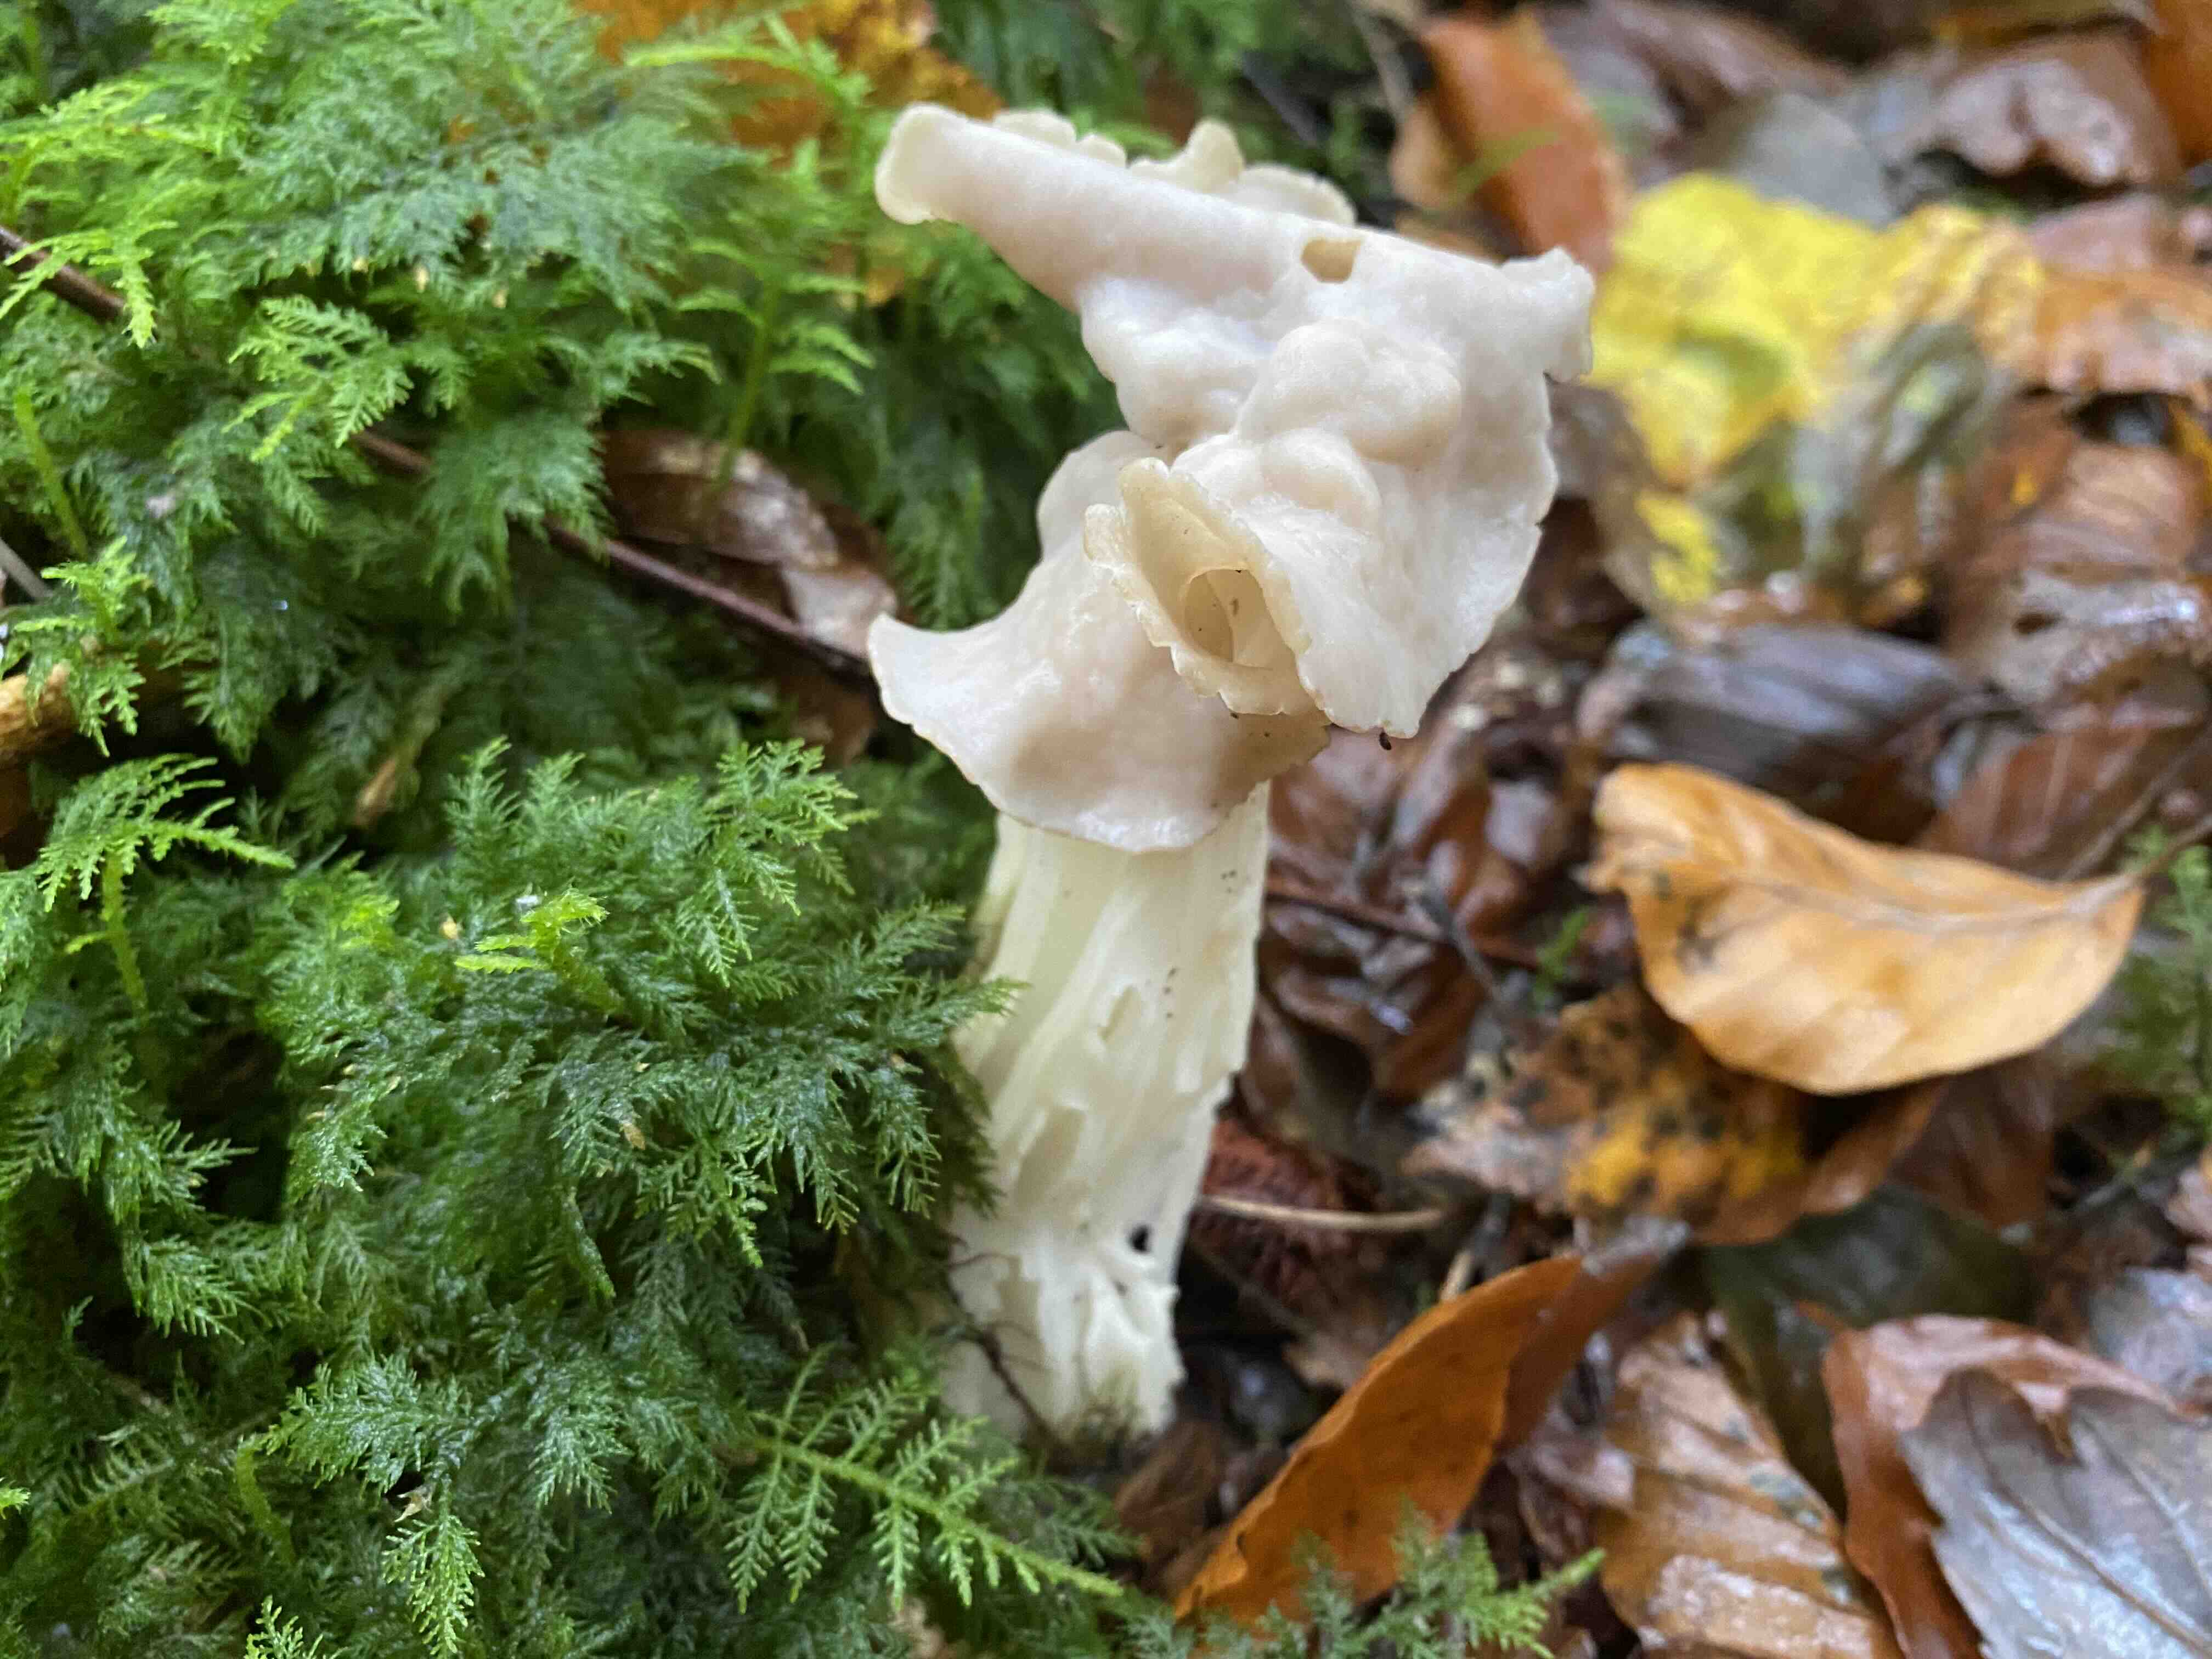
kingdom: Fungi
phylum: Ascomycota
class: Pezizomycetes
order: Pezizales
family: Helvellaceae
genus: Helvella
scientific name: Helvella crispa
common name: kruset foldhat
